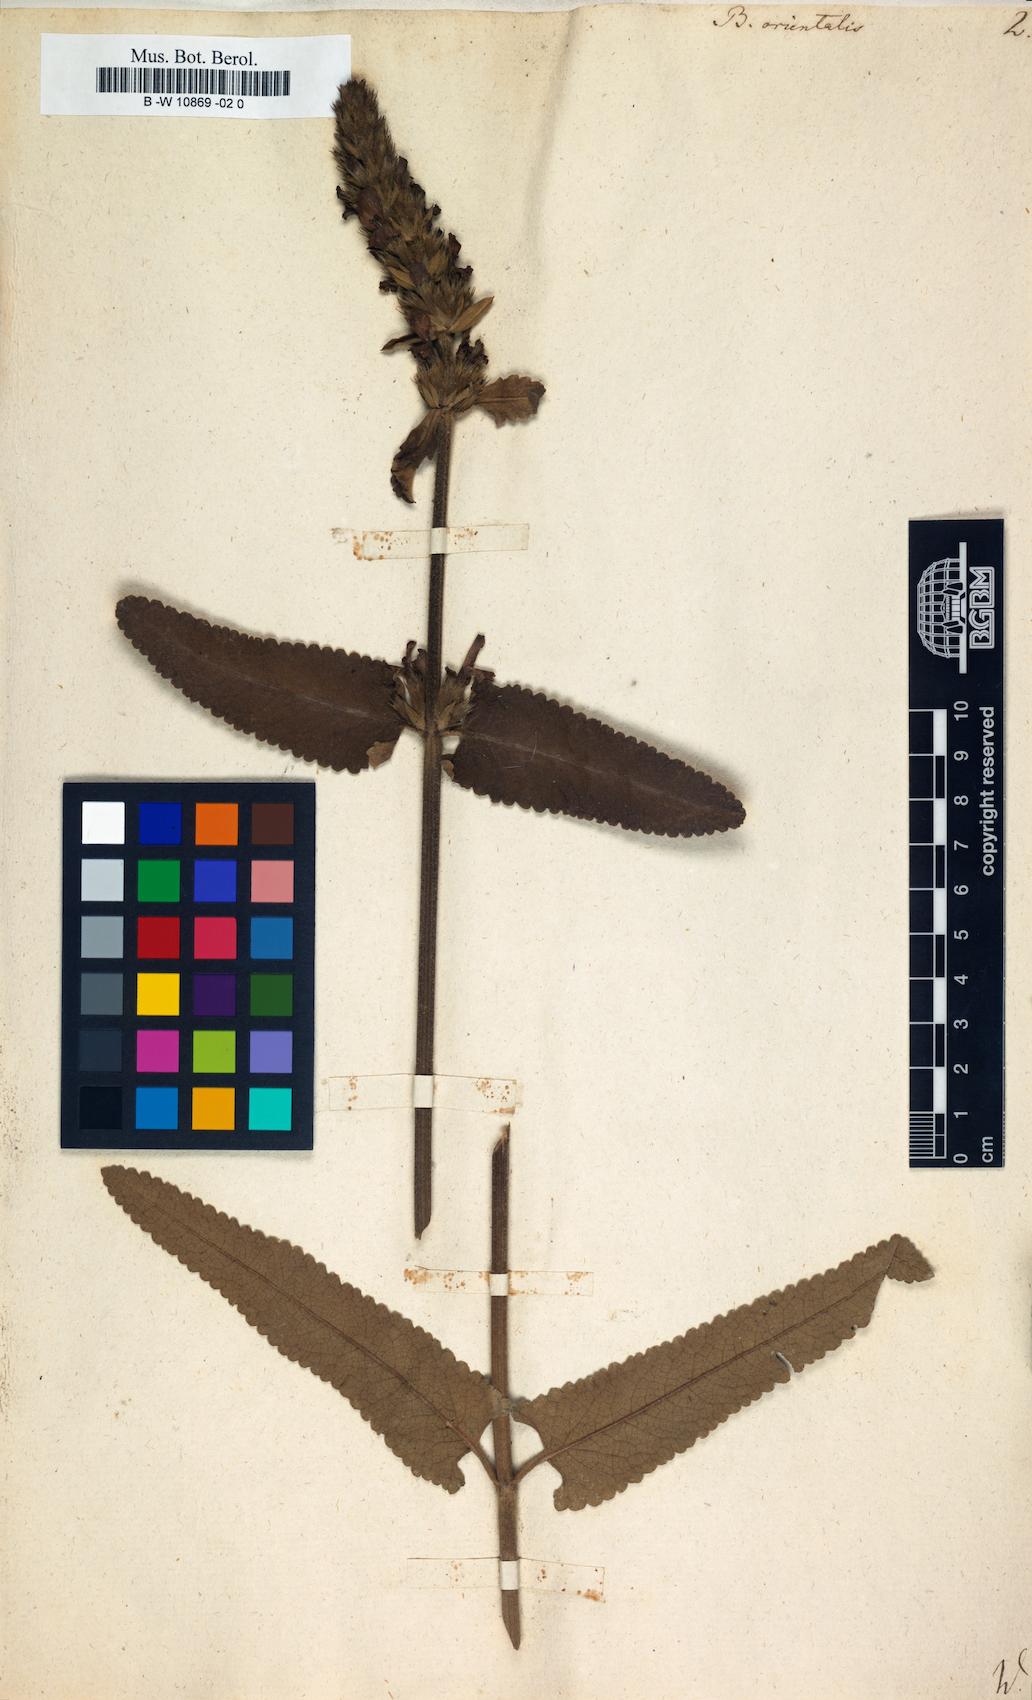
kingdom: Plantae
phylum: Tracheophyta
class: Magnoliopsida
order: Lamiales
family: Lamiaceae
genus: Betonica
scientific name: Betonica orientalis
